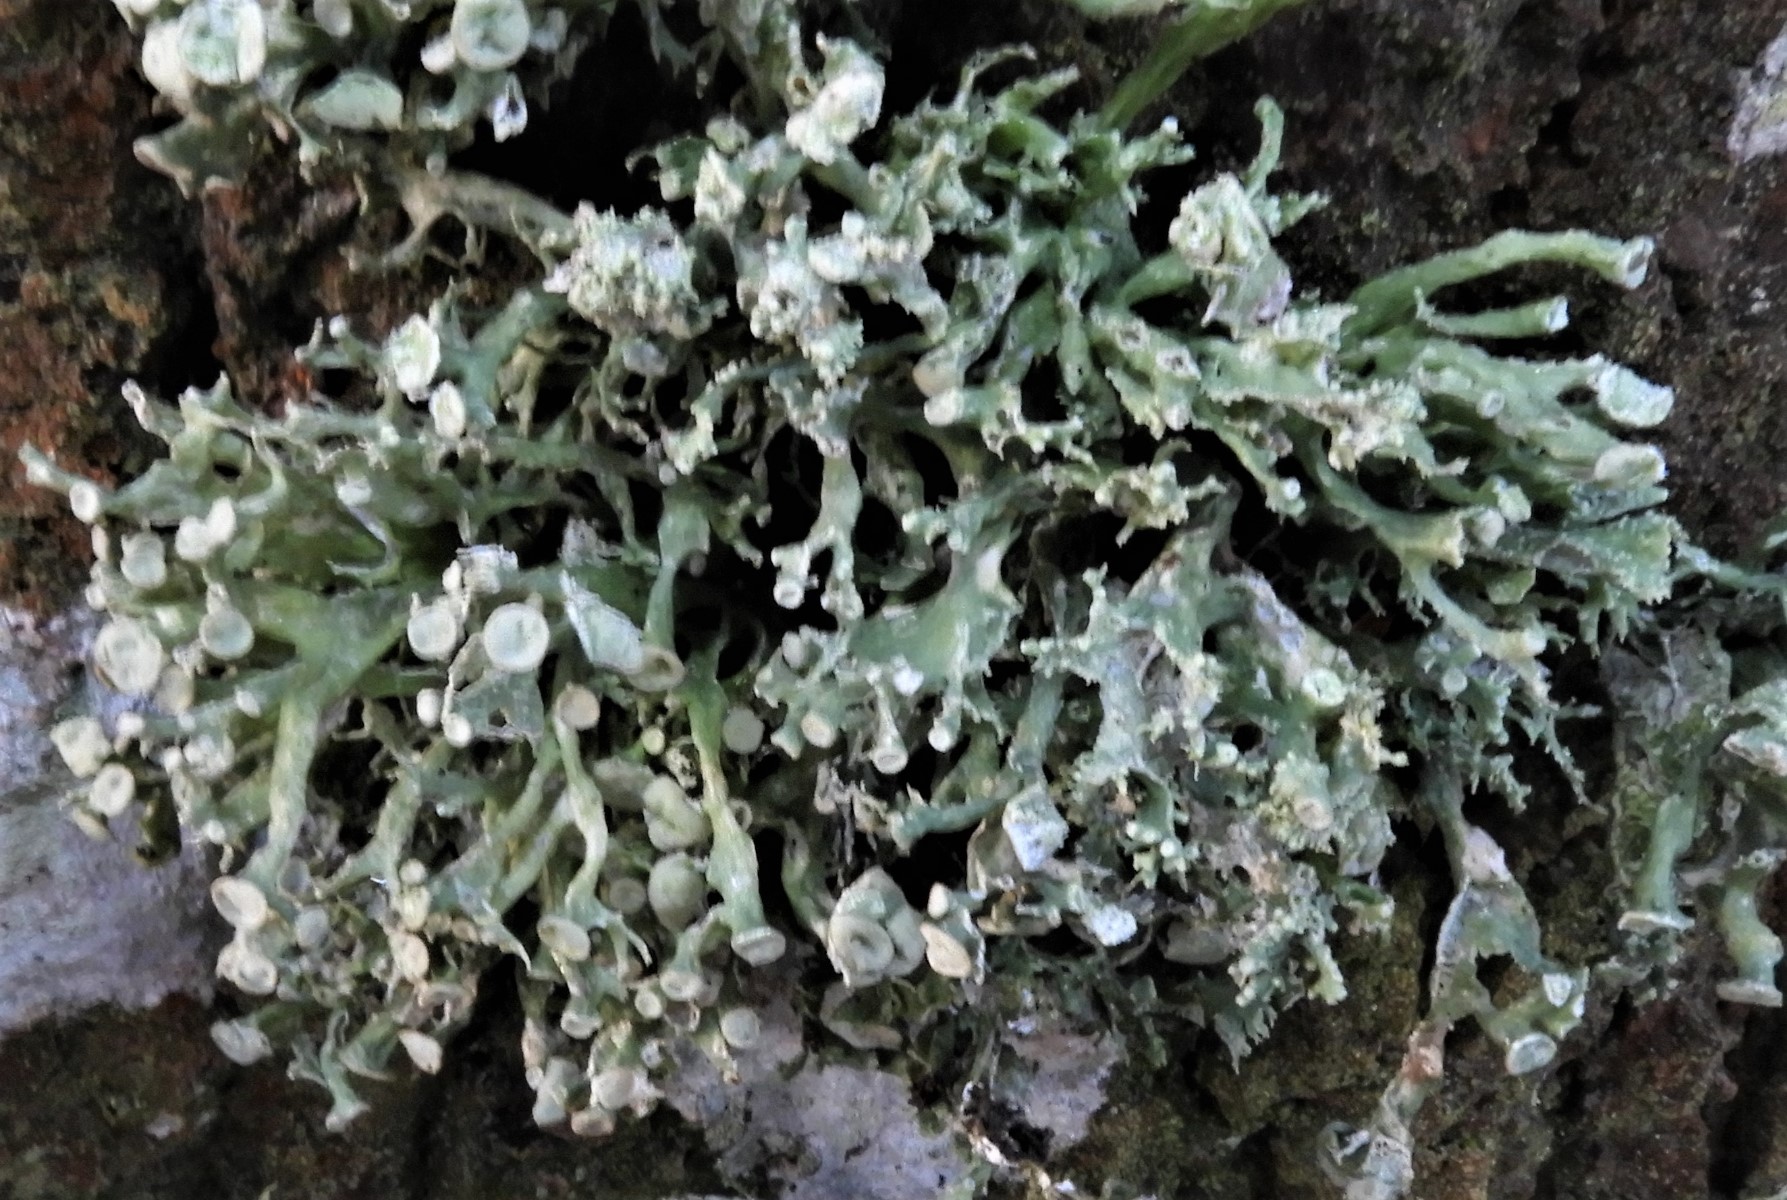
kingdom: Fungi
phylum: Ascomycota
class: Lecanoromycetes
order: Lecanorales
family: Ramalinaceae
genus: Ramalina
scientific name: Ramalina fastigiata
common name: tue-grenlav
